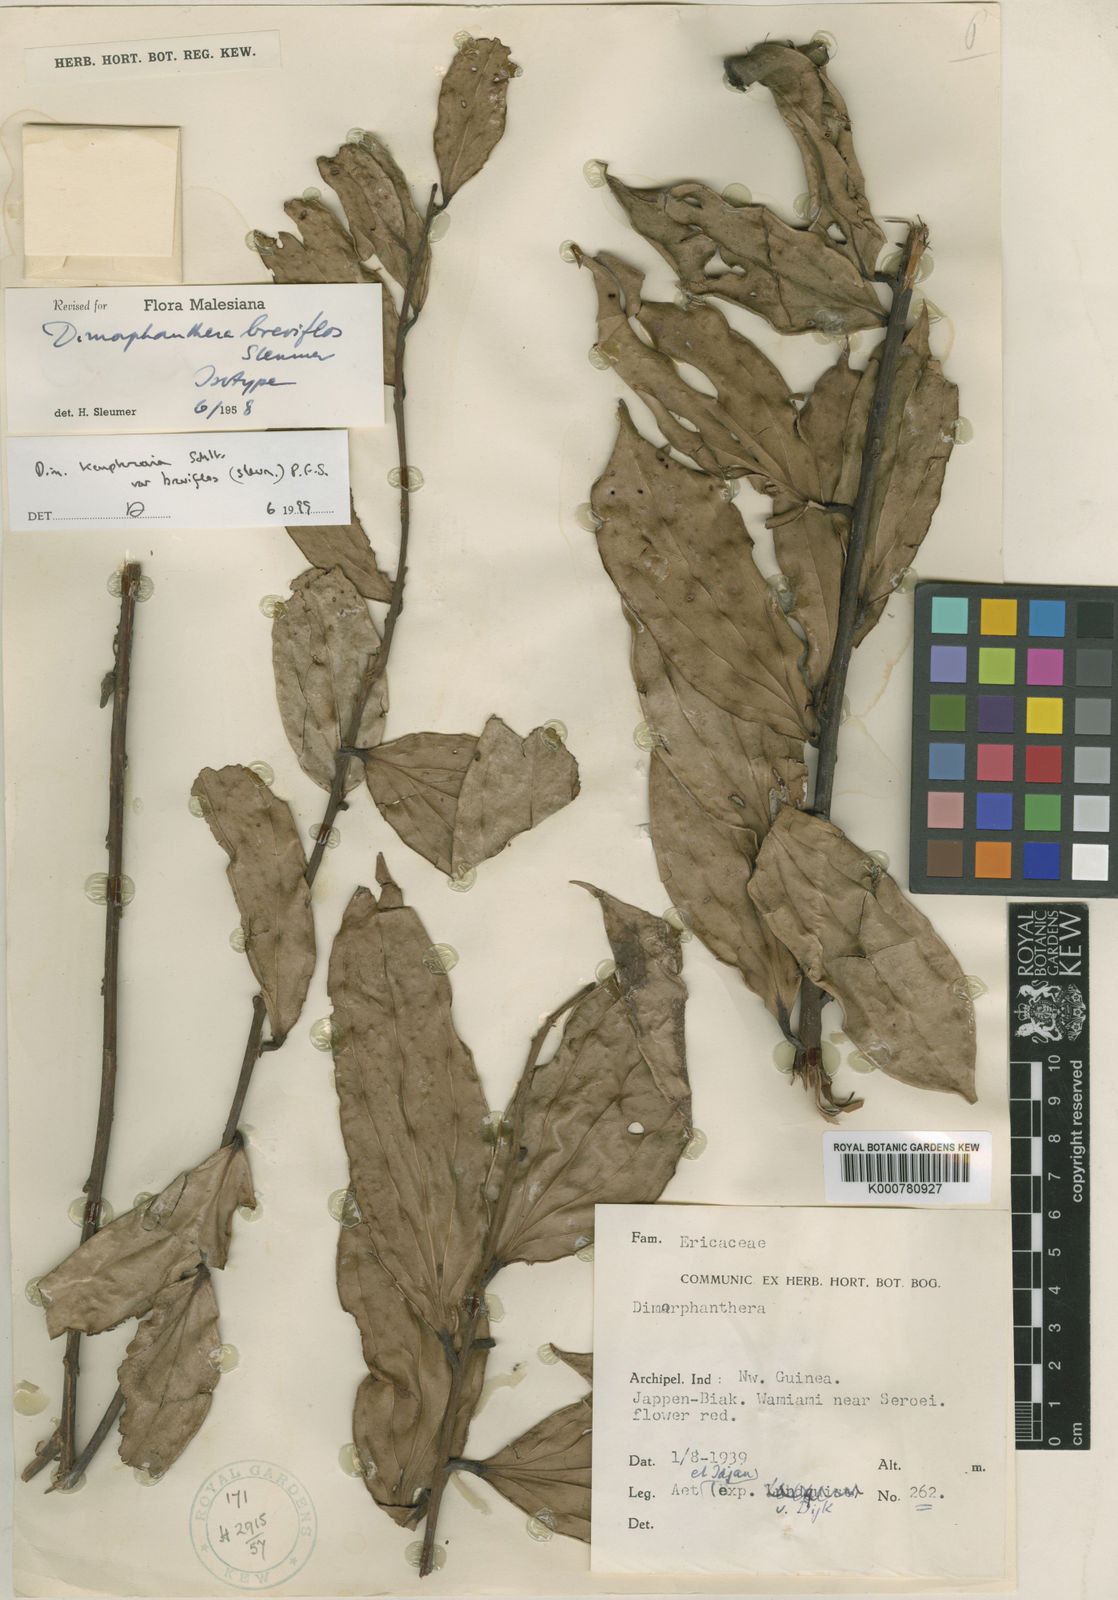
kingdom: Plantae
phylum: Tracheophyta
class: Magnoliopsida
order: Ericales
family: Ericaceae
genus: Dimorphanthera
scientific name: Dimorphanthera kempteriana
